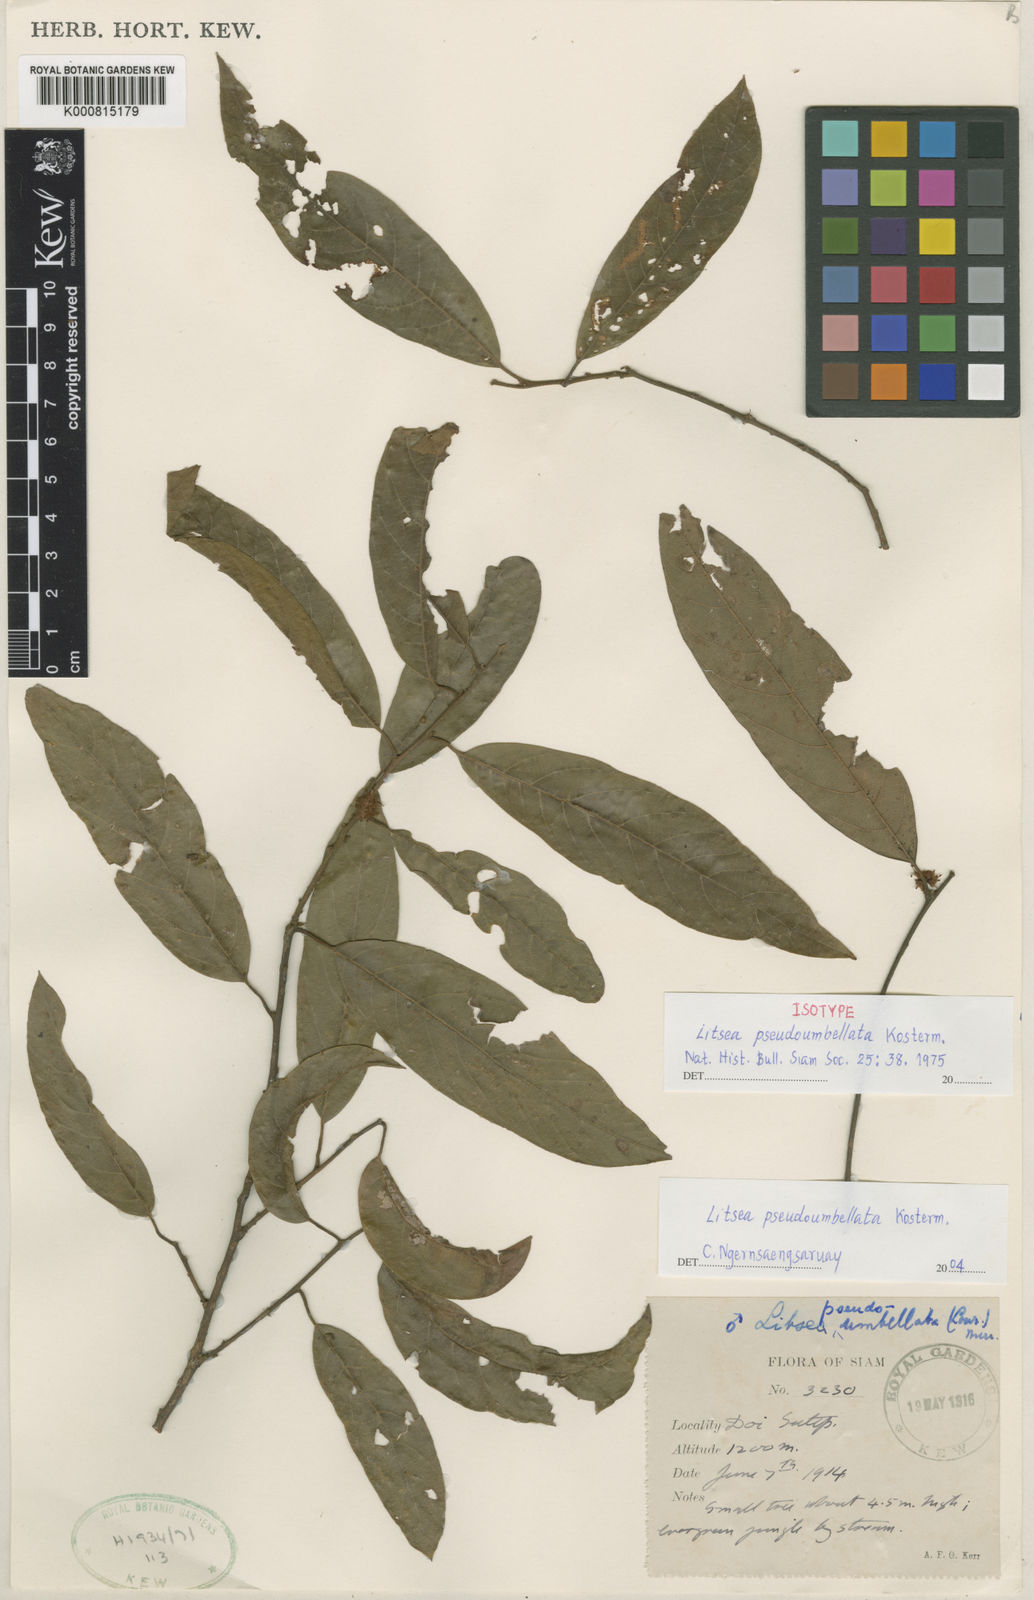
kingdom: Plantae
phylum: Tracheophyta
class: Magnoliopsida
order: Laurales
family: Lauraceae
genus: Litsea
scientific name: Litsea pseudoumbellata
